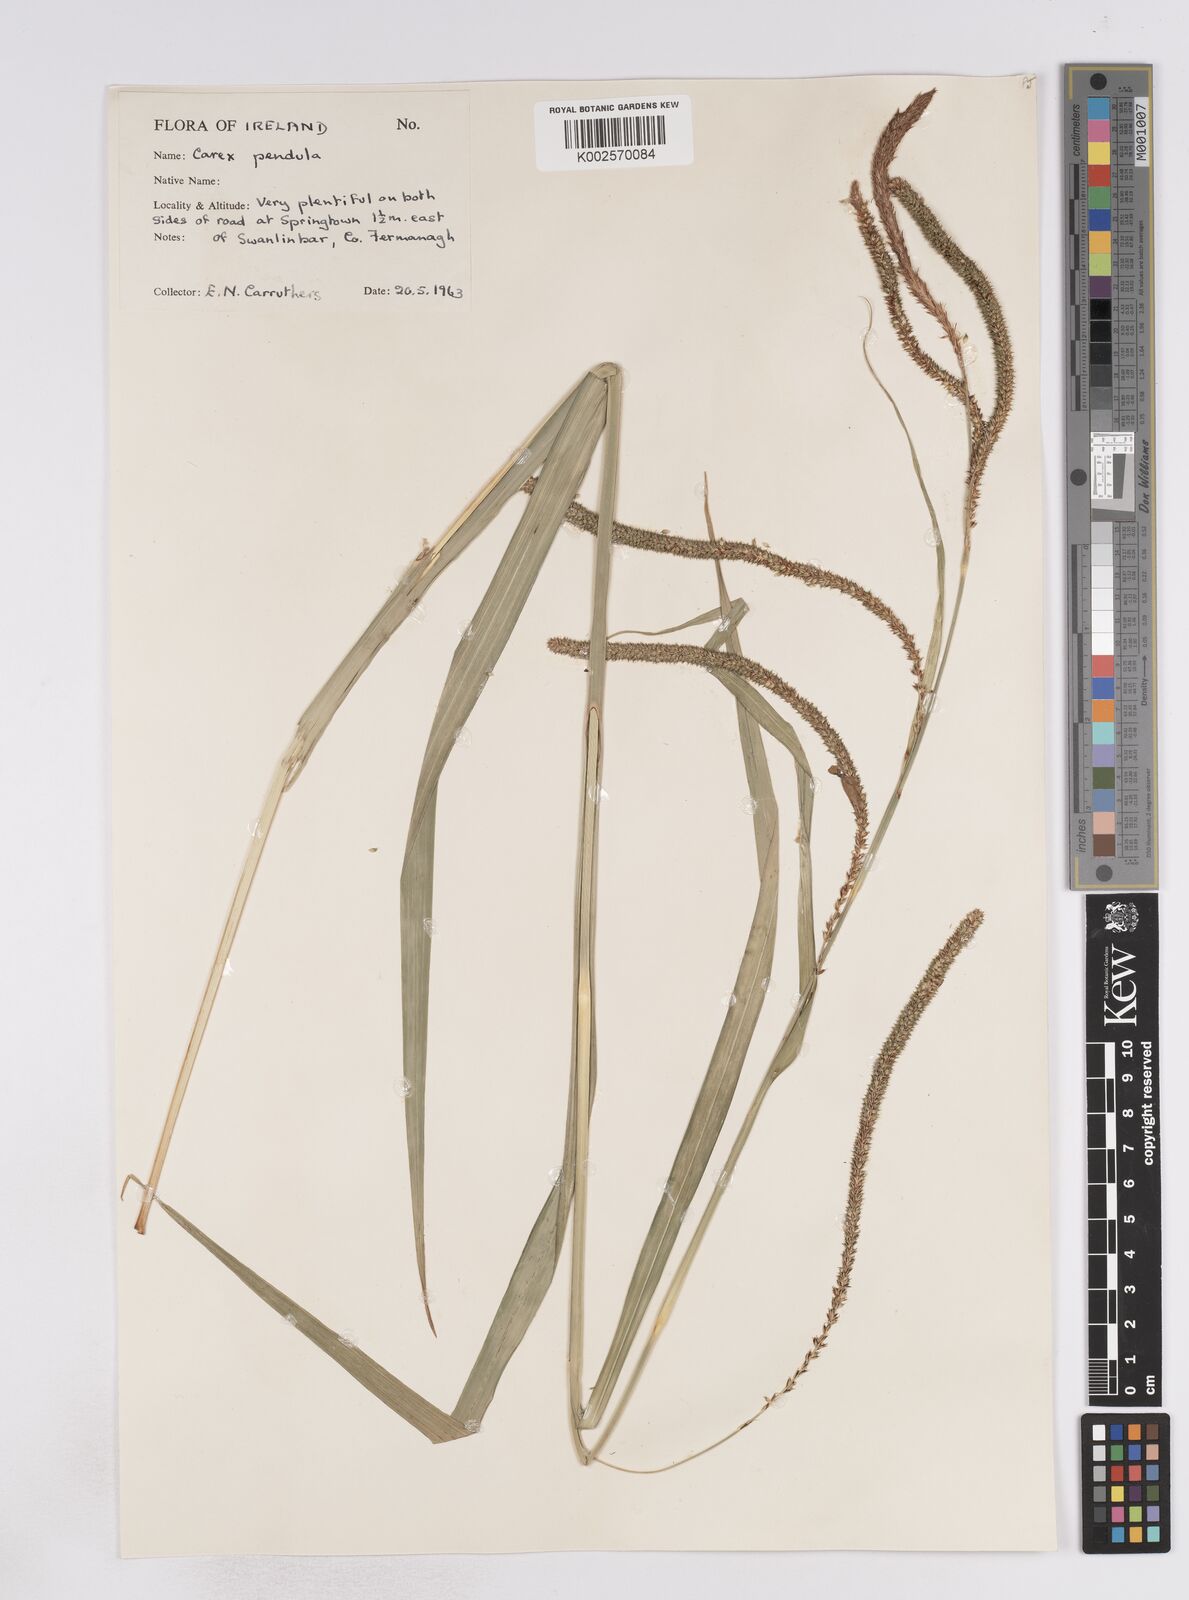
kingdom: Plantae
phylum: Tracheophyta
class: Liliopsida
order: Poales
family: Cyperaceae
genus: Carex
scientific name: Carex pendula
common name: Pendulous sedge
